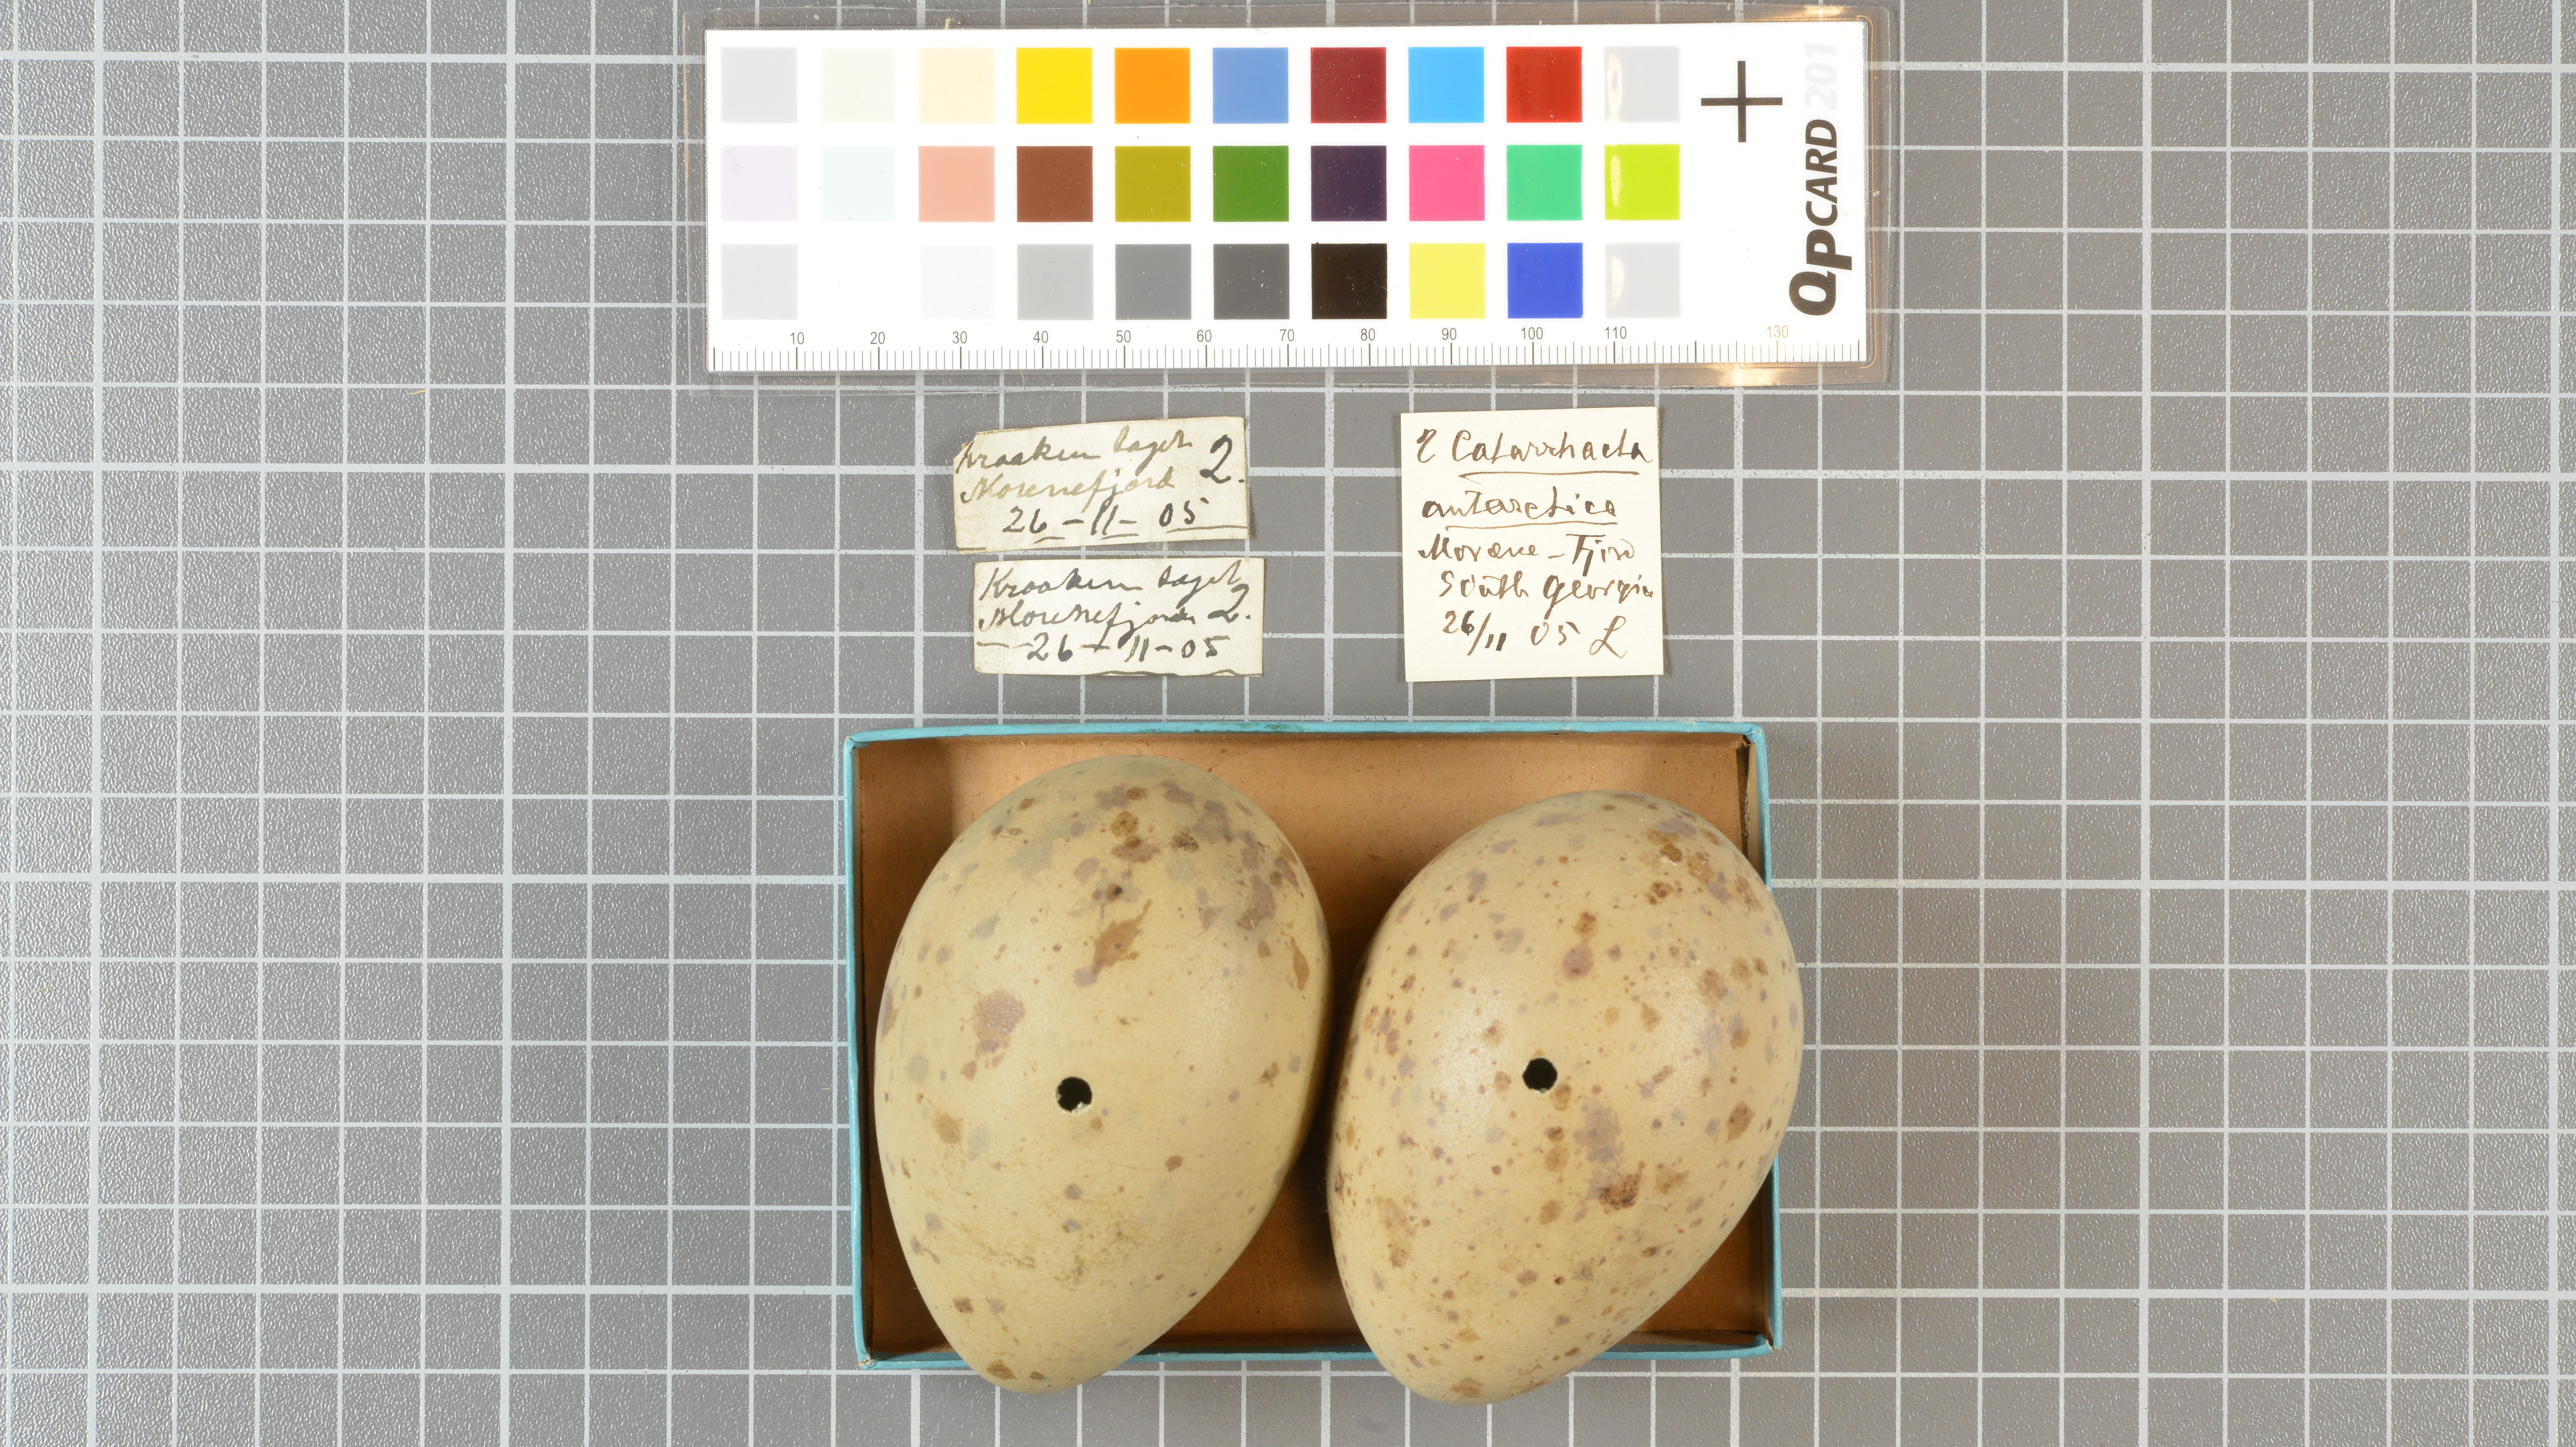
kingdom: Animalia
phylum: Chordata
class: Aves
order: Charadriiformes
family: Stercorariidae
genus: Stercorarius
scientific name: Stercorarius antarcticus
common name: Brown skua
